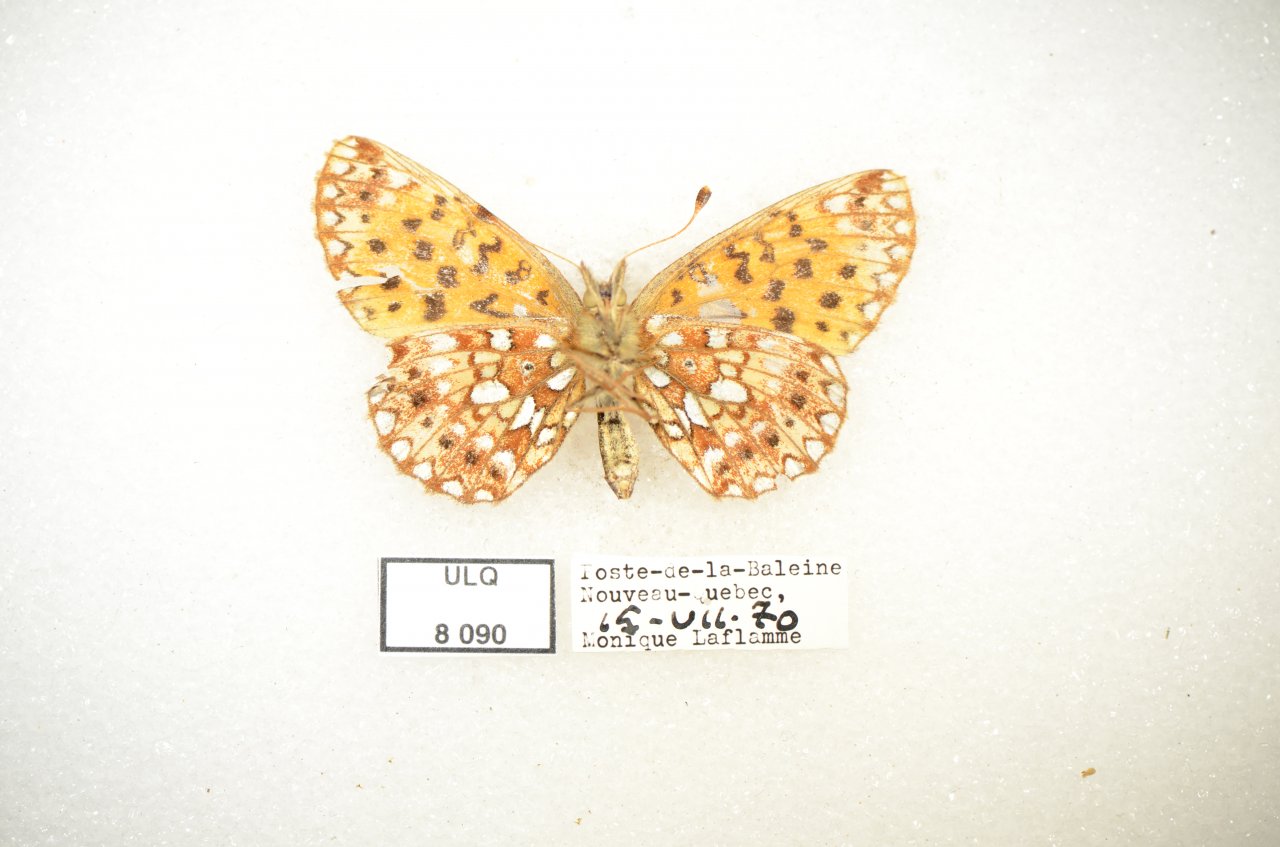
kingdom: Animalia
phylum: Arthropoda
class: Insecta
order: Lepidoptera
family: Nymphalidae
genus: Boloria
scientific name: Boloria selene
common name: Silver-bordered Fritillary
